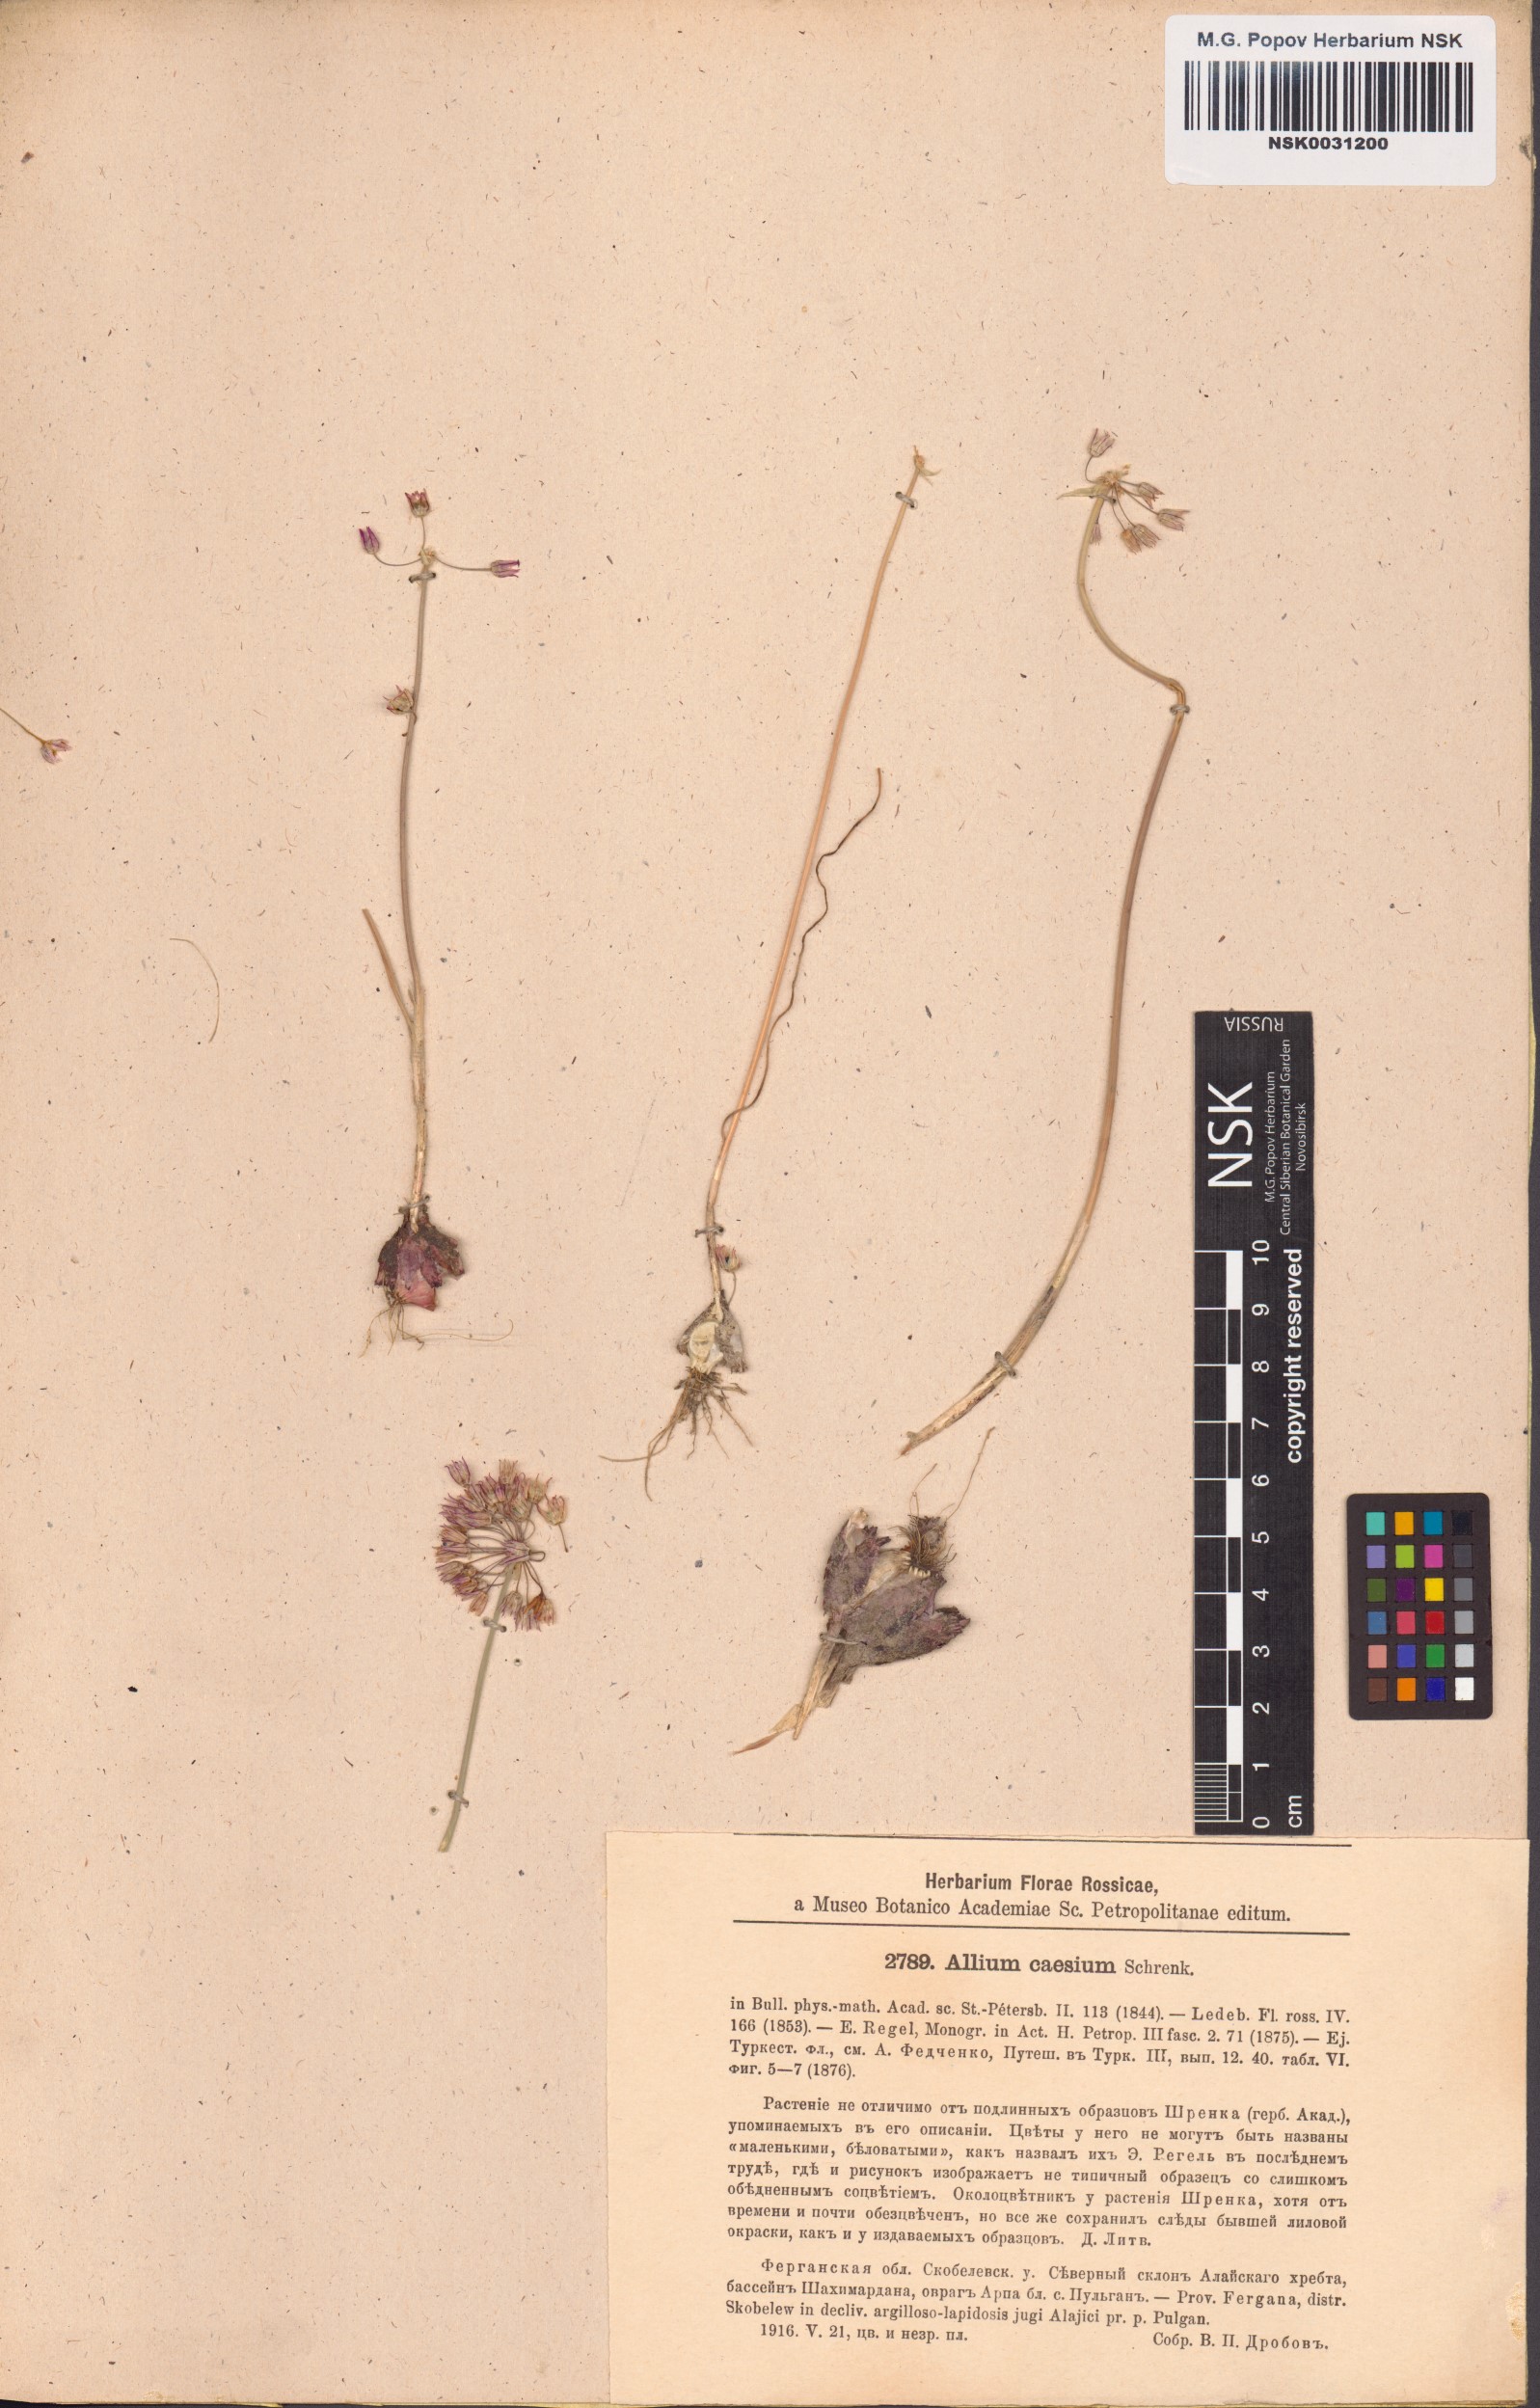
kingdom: Plantae
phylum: Tracheophyta
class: Liliopsida
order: Asparagales
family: Amaryllidaceae
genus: Allium
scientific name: Allium caesium
